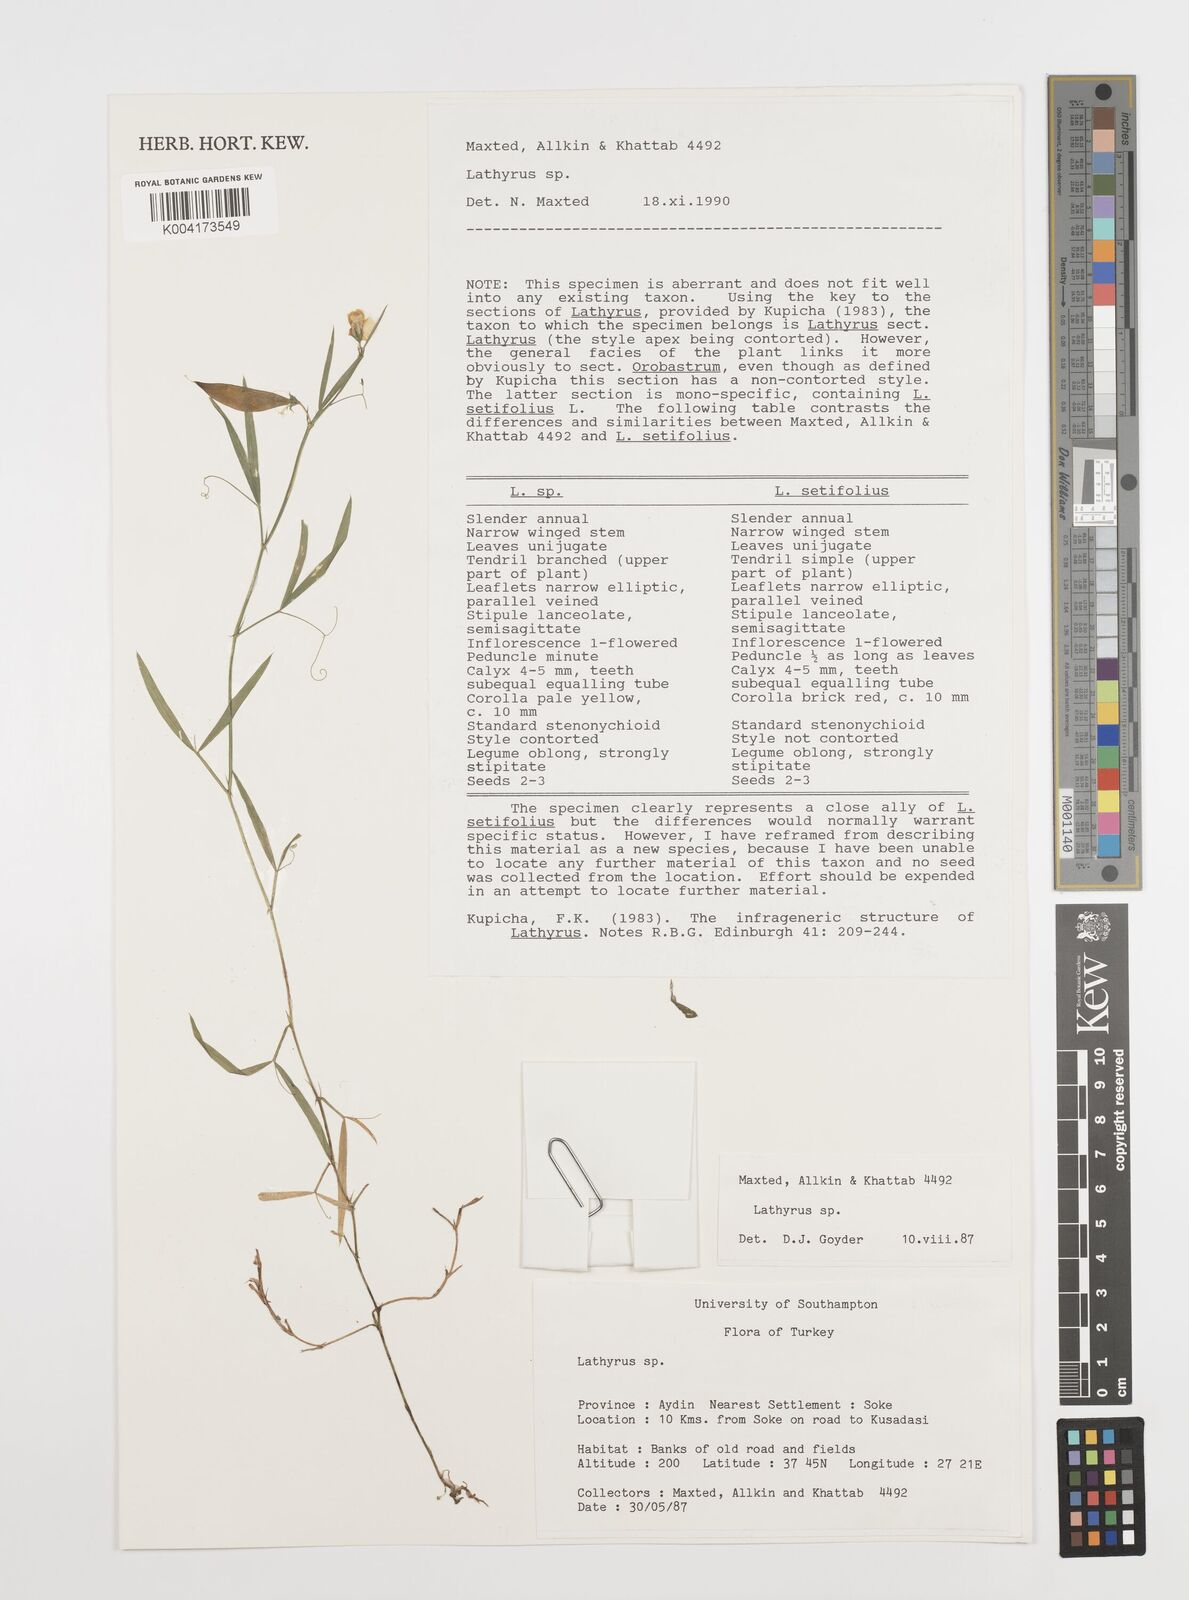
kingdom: Plantae
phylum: Tracheophyta
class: Magnoliopsida
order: Fabales
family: Fabaceae
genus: Lathyrus
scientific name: Lathyrus
